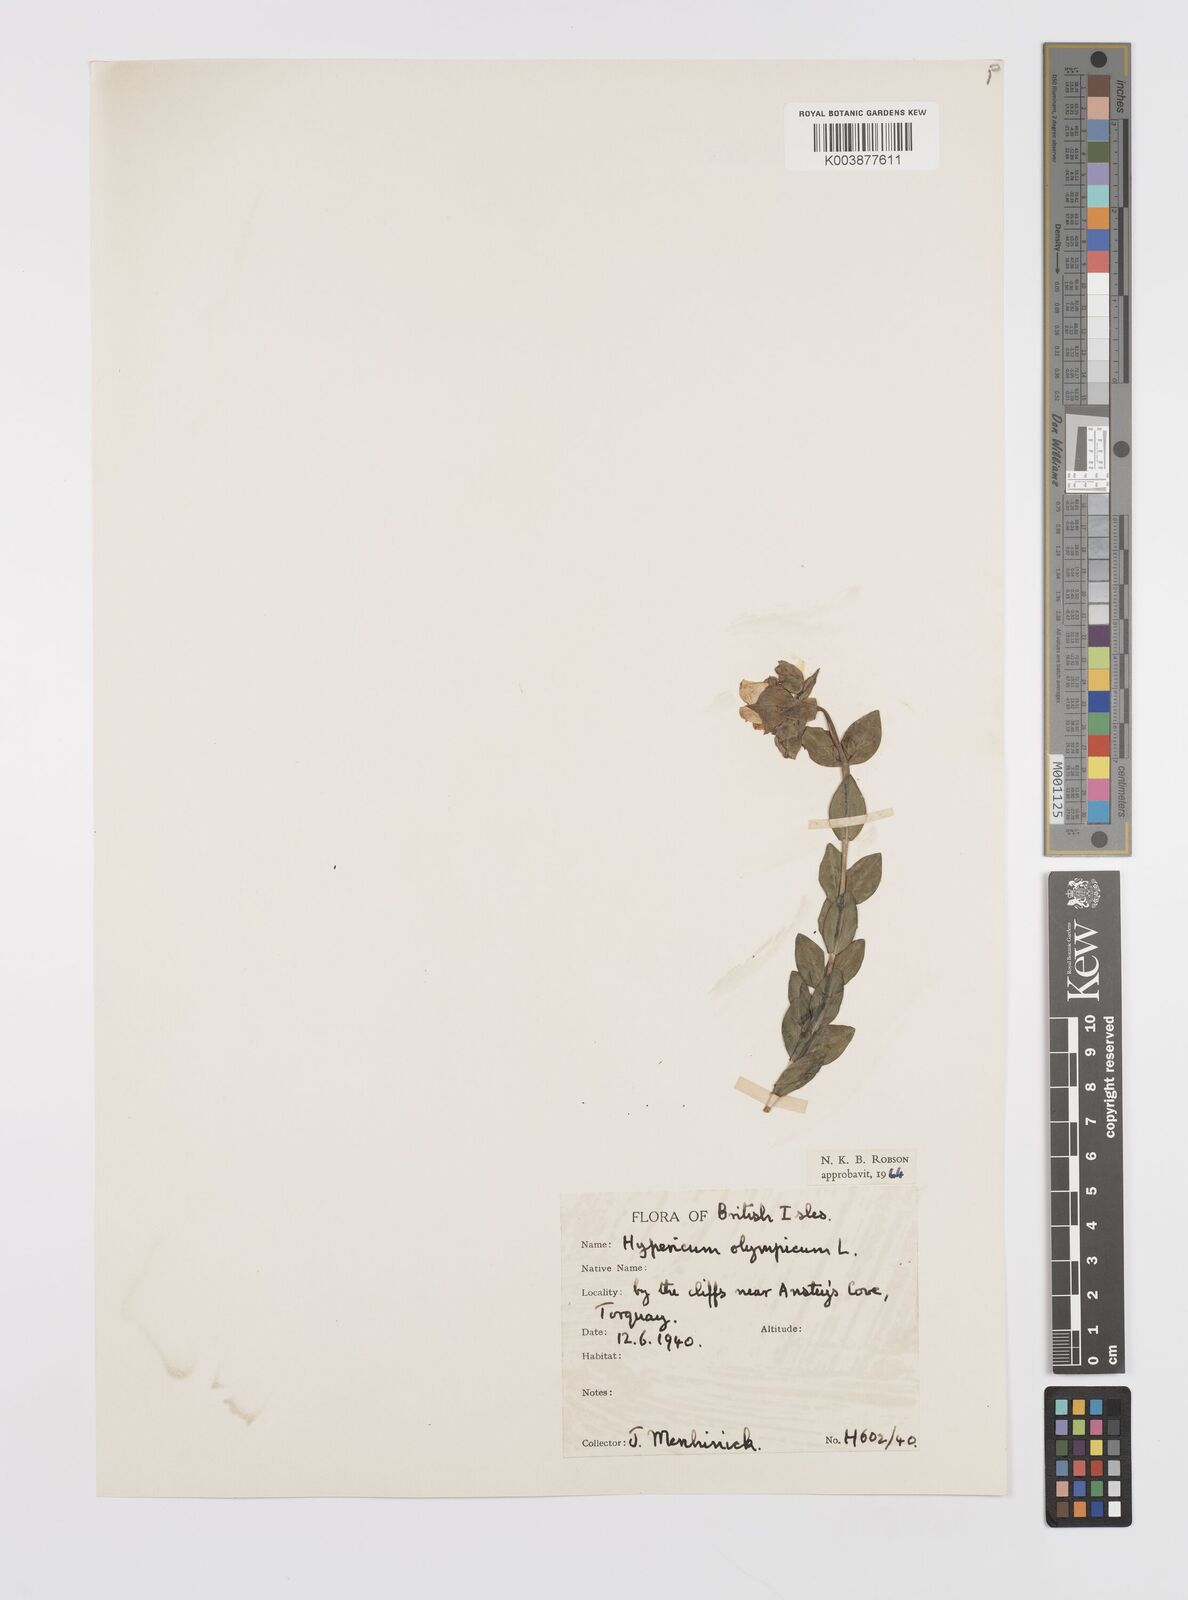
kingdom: Plantae
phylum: Tracheophyta
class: Magnoliopsida
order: Malpighiales
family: Hypericaceae
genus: Hypericum
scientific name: Hypericum olympicum
